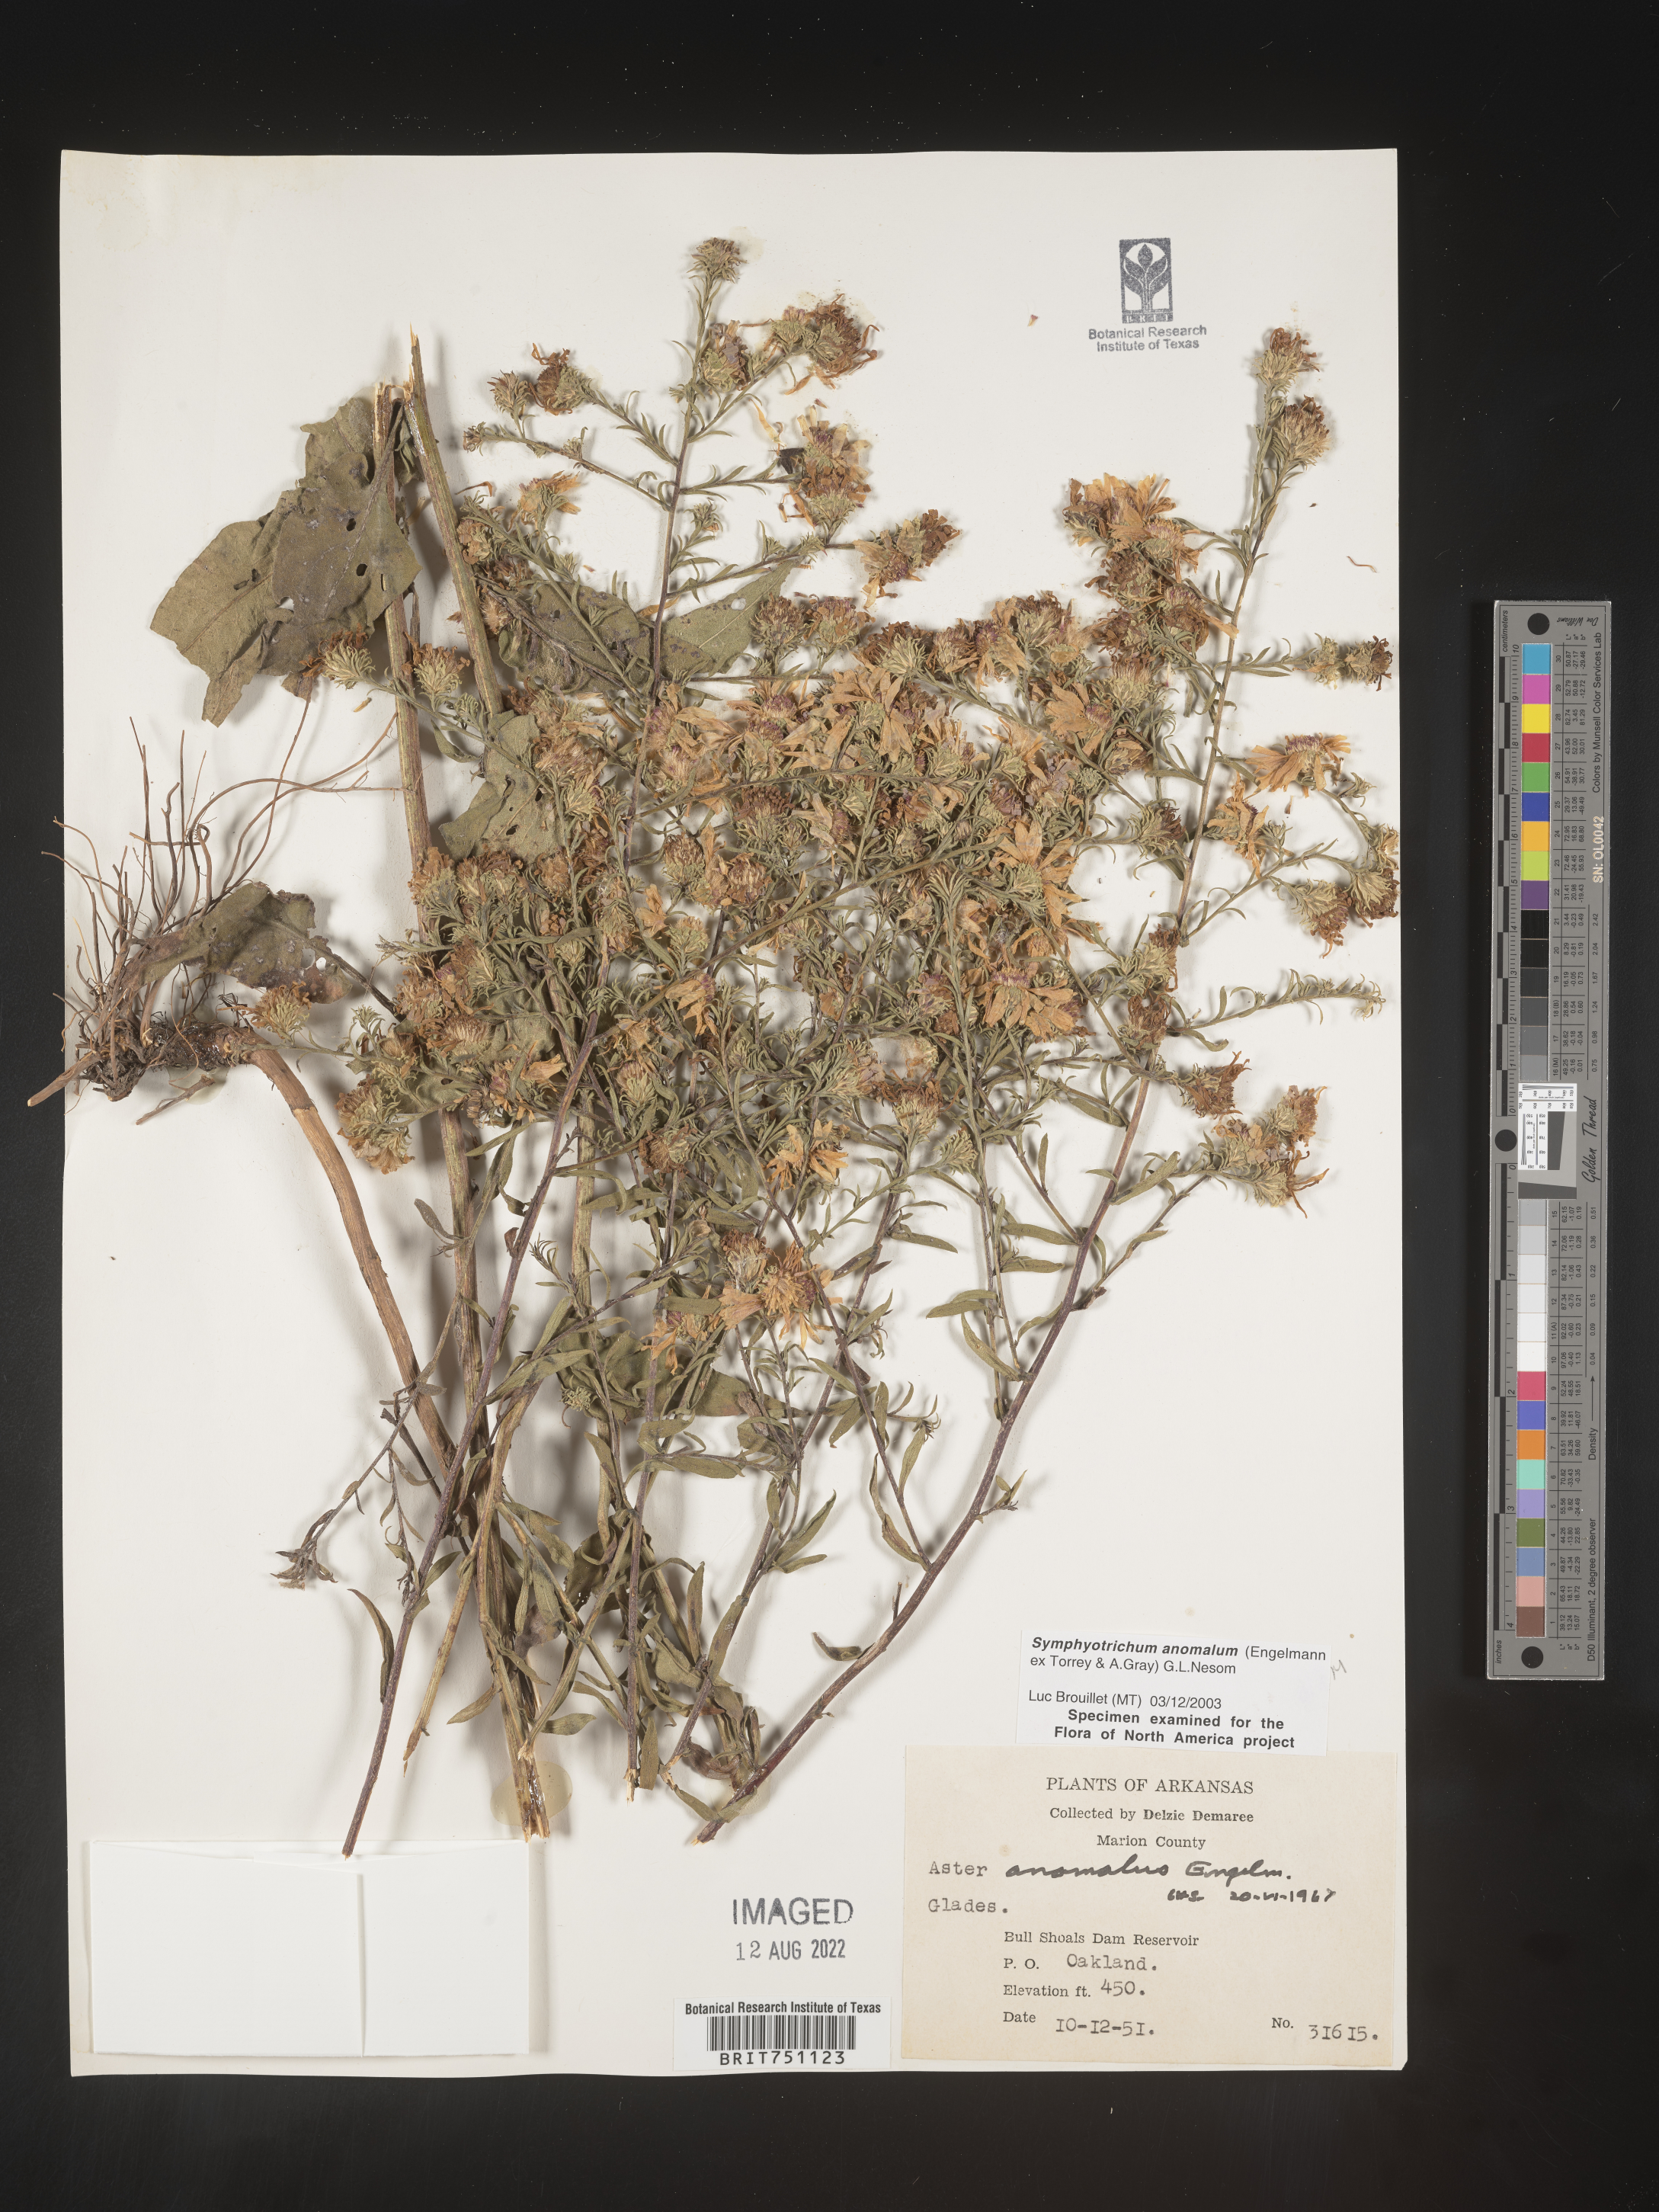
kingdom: Plantae
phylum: Tracheophyta
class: Magnoliopsida
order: Asterales
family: Asteraceae
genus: Symphyotrichum
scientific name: Symphyotrichum anomalum
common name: Many-ray aster
